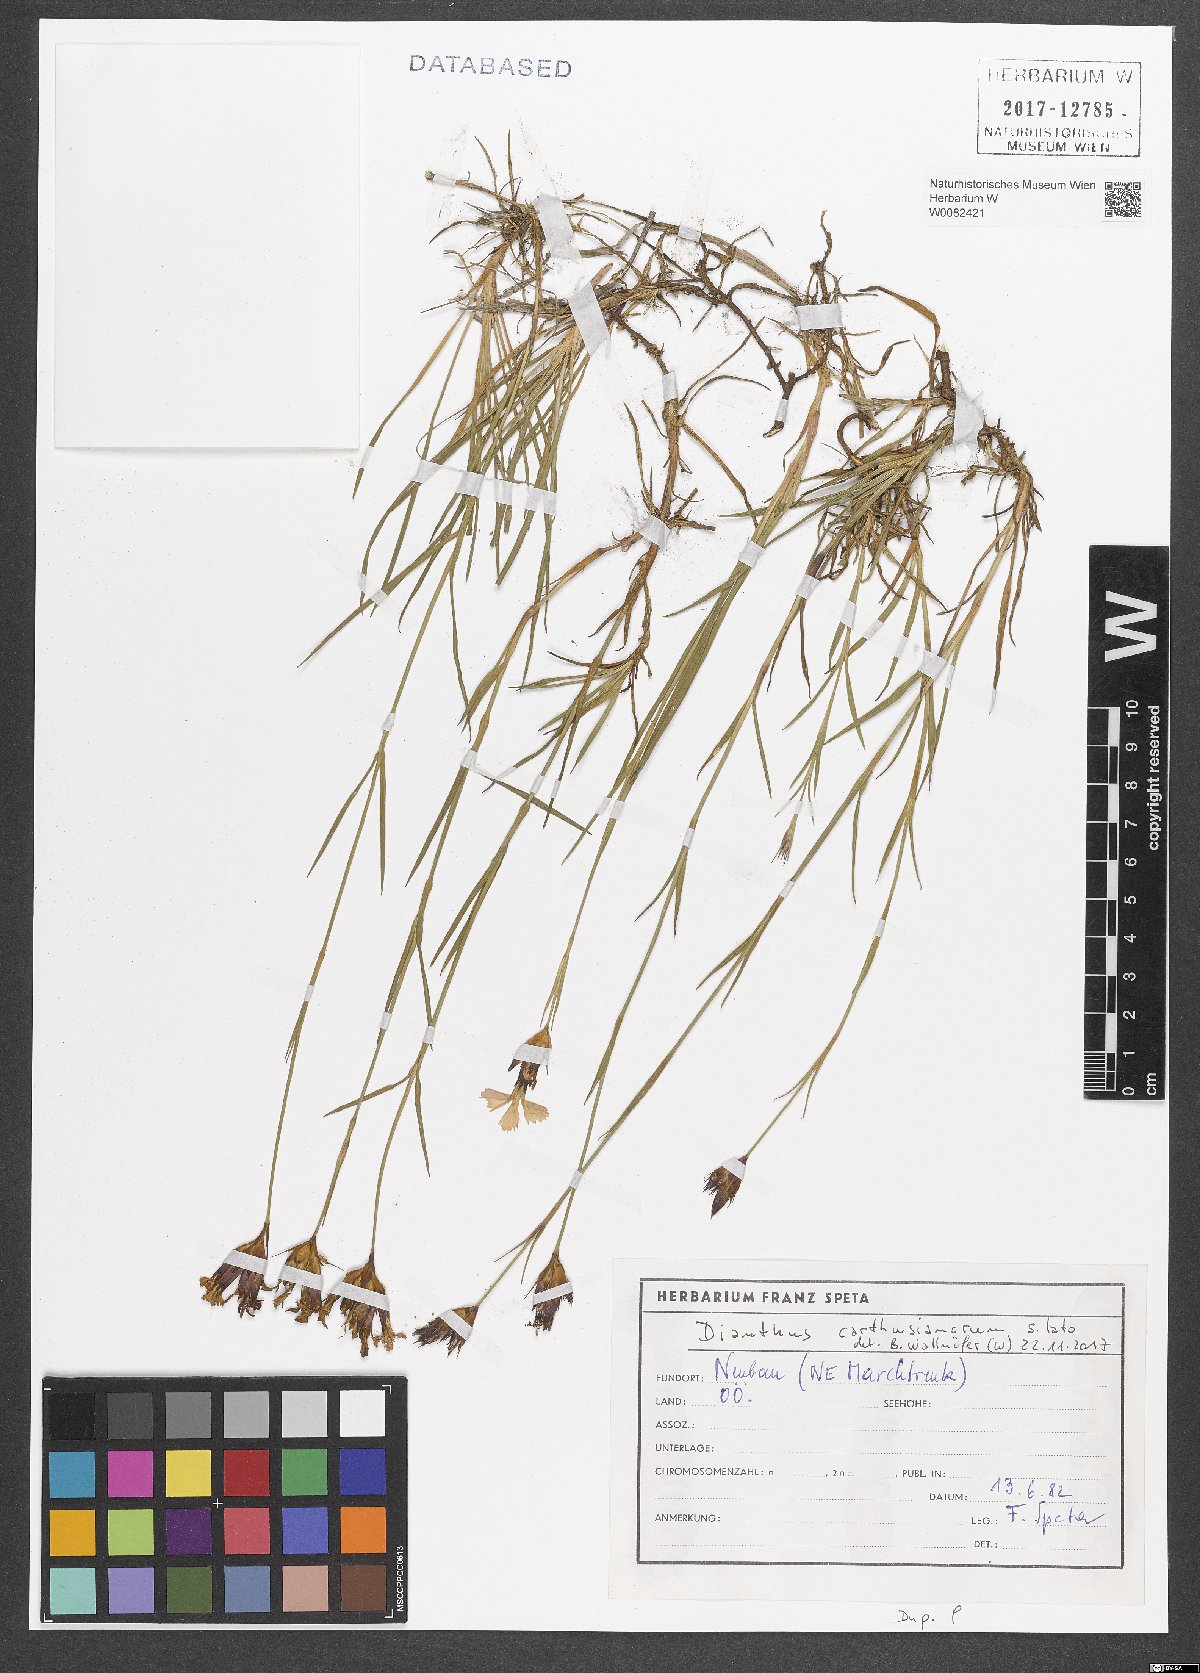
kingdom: Plantae
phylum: Tracheophyta
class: Magnoliopsida
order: Caryophyllales
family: Caryophyllaceae
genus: Dianthus
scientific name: Dianthus carthusianorum
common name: Carthusian pink
